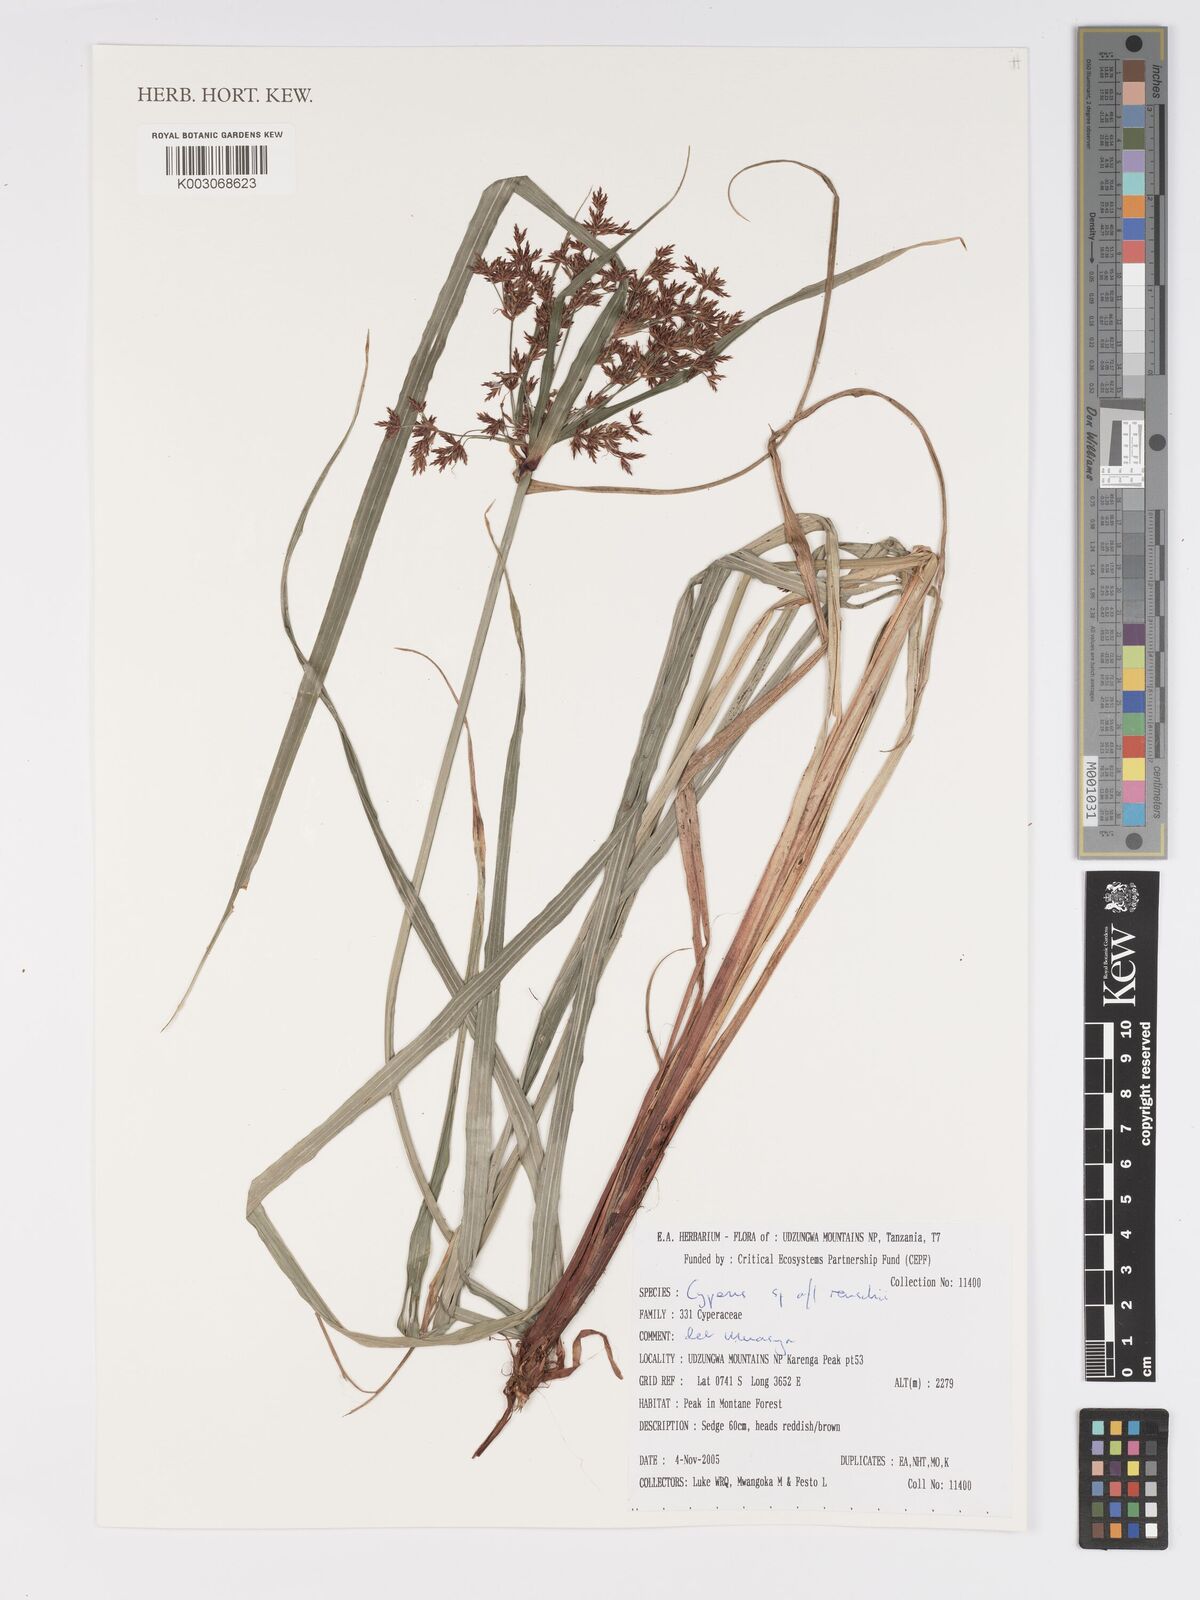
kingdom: Plantae
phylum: Tracheophyta
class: Liliopsida
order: Poales
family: Cyperaceae
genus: Cyperus
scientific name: Cyperus renschii
